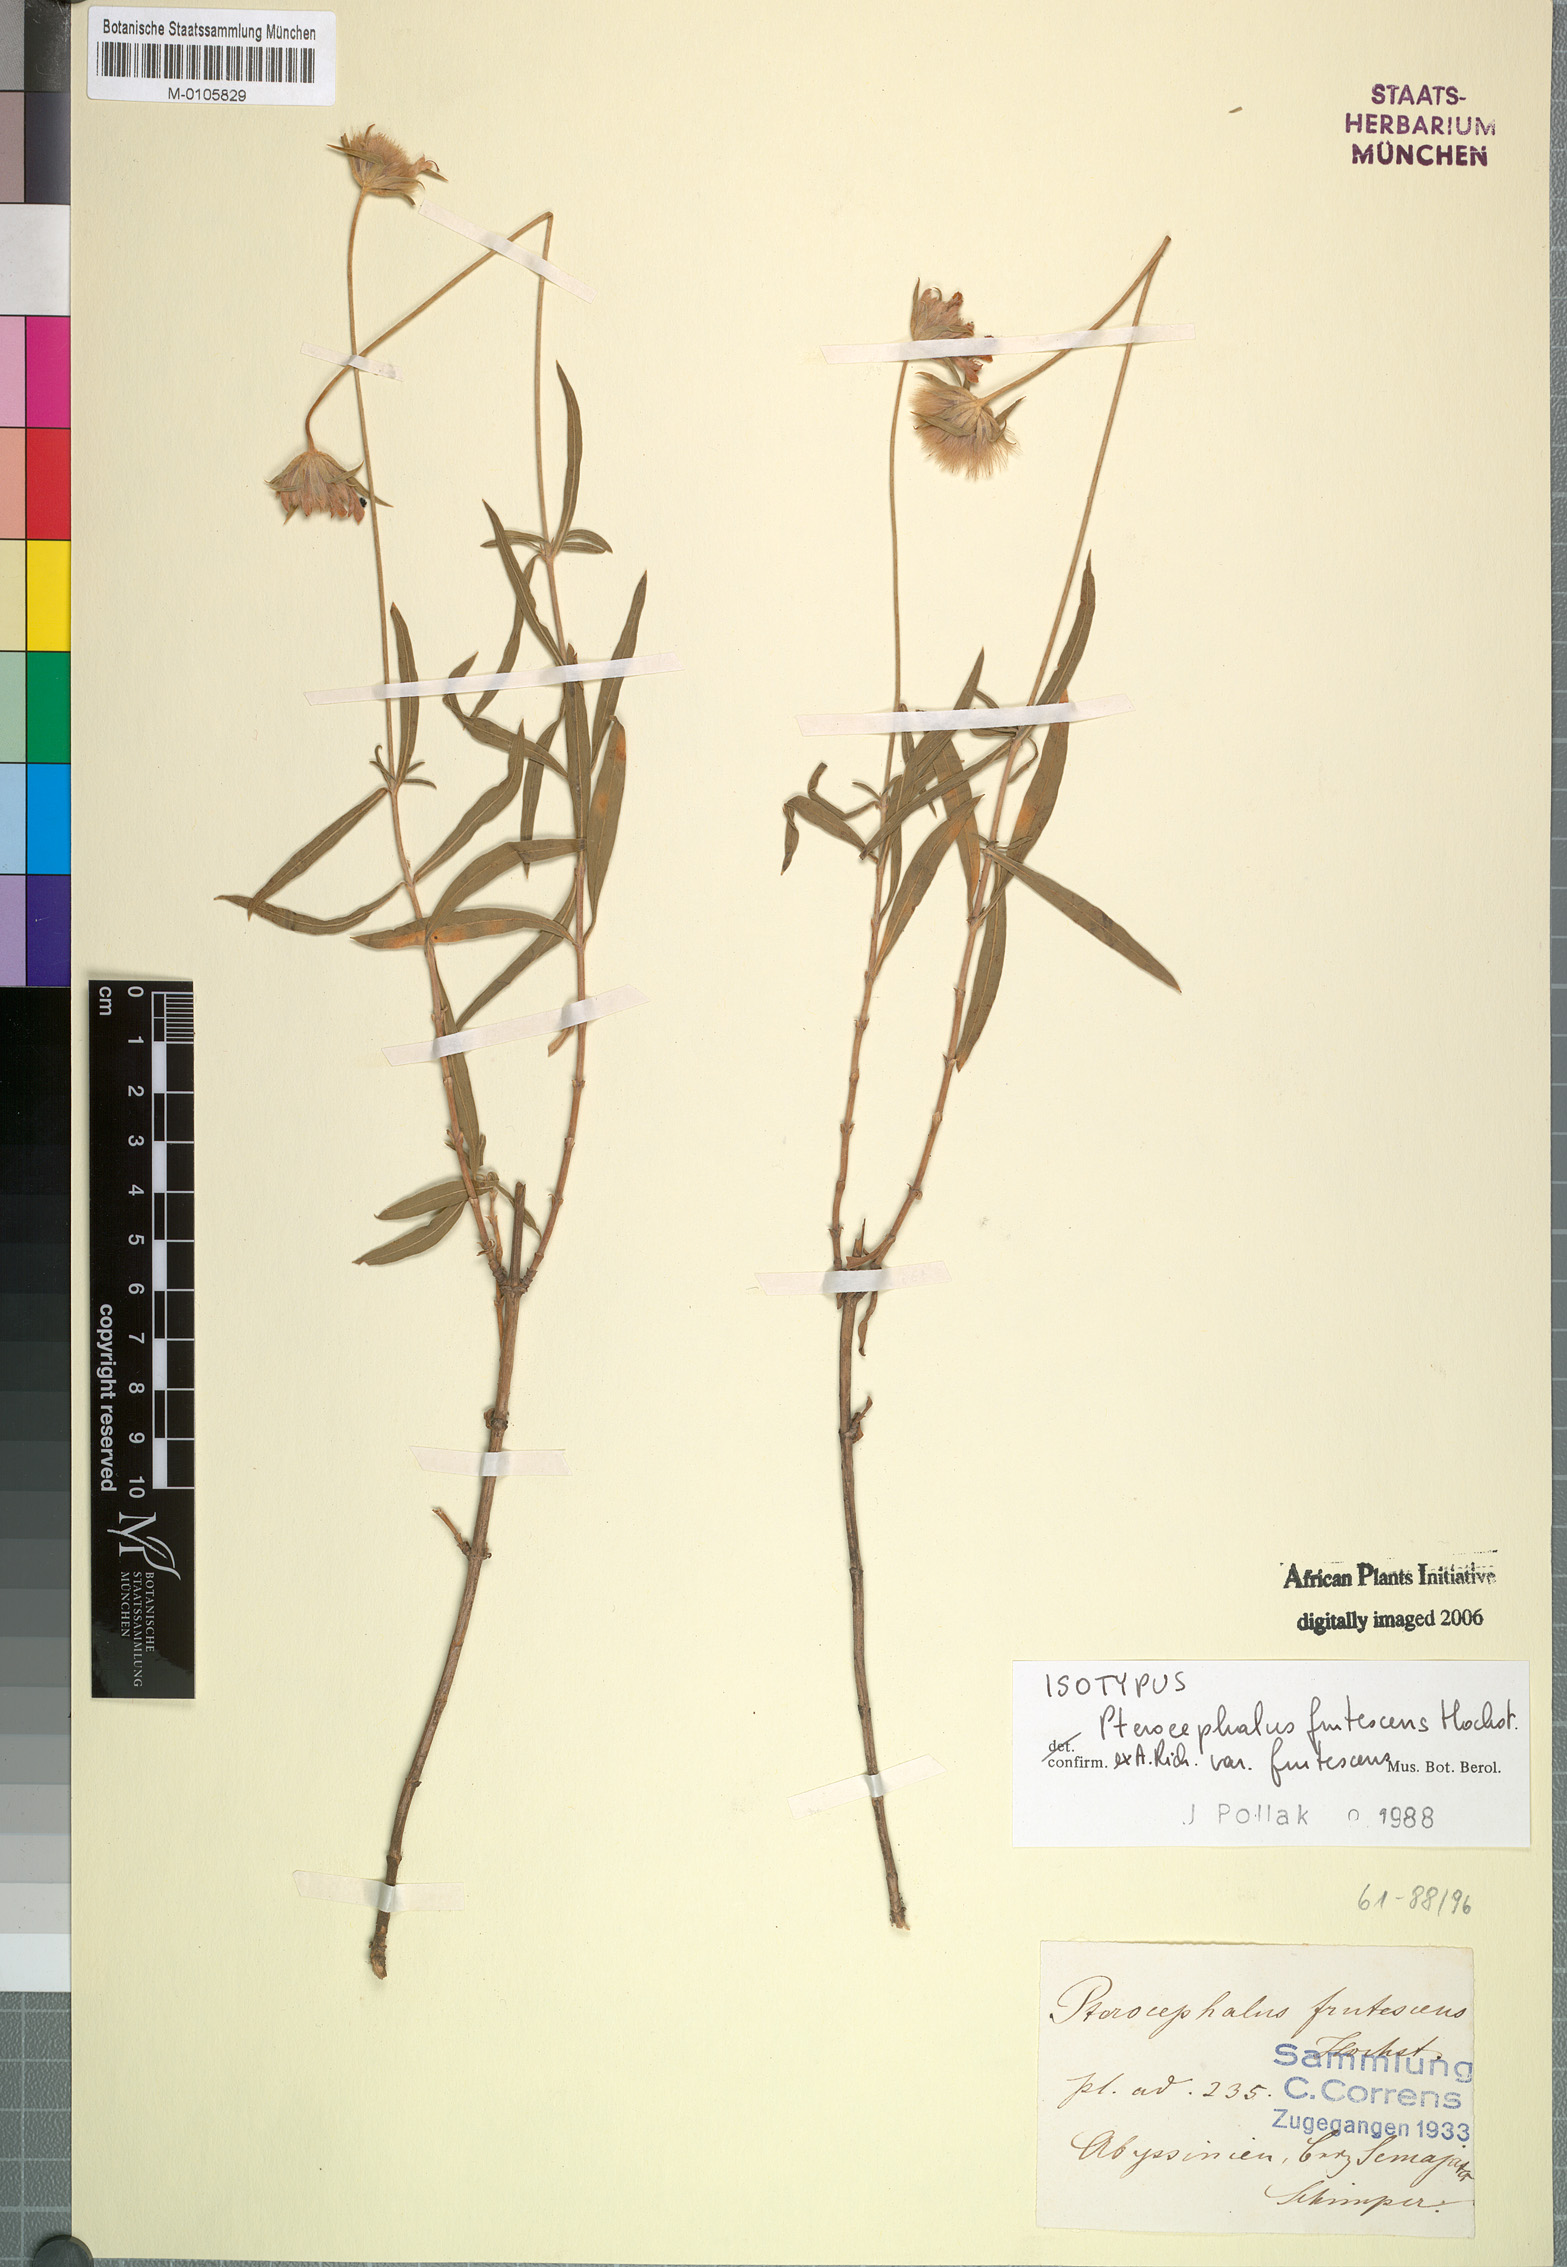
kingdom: Plantae
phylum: Tracheophyta
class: Magnoliopsida
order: Dipsacales
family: Caprifoliaceae
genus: Pterocephalus
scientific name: Pterocephalus frutescens
